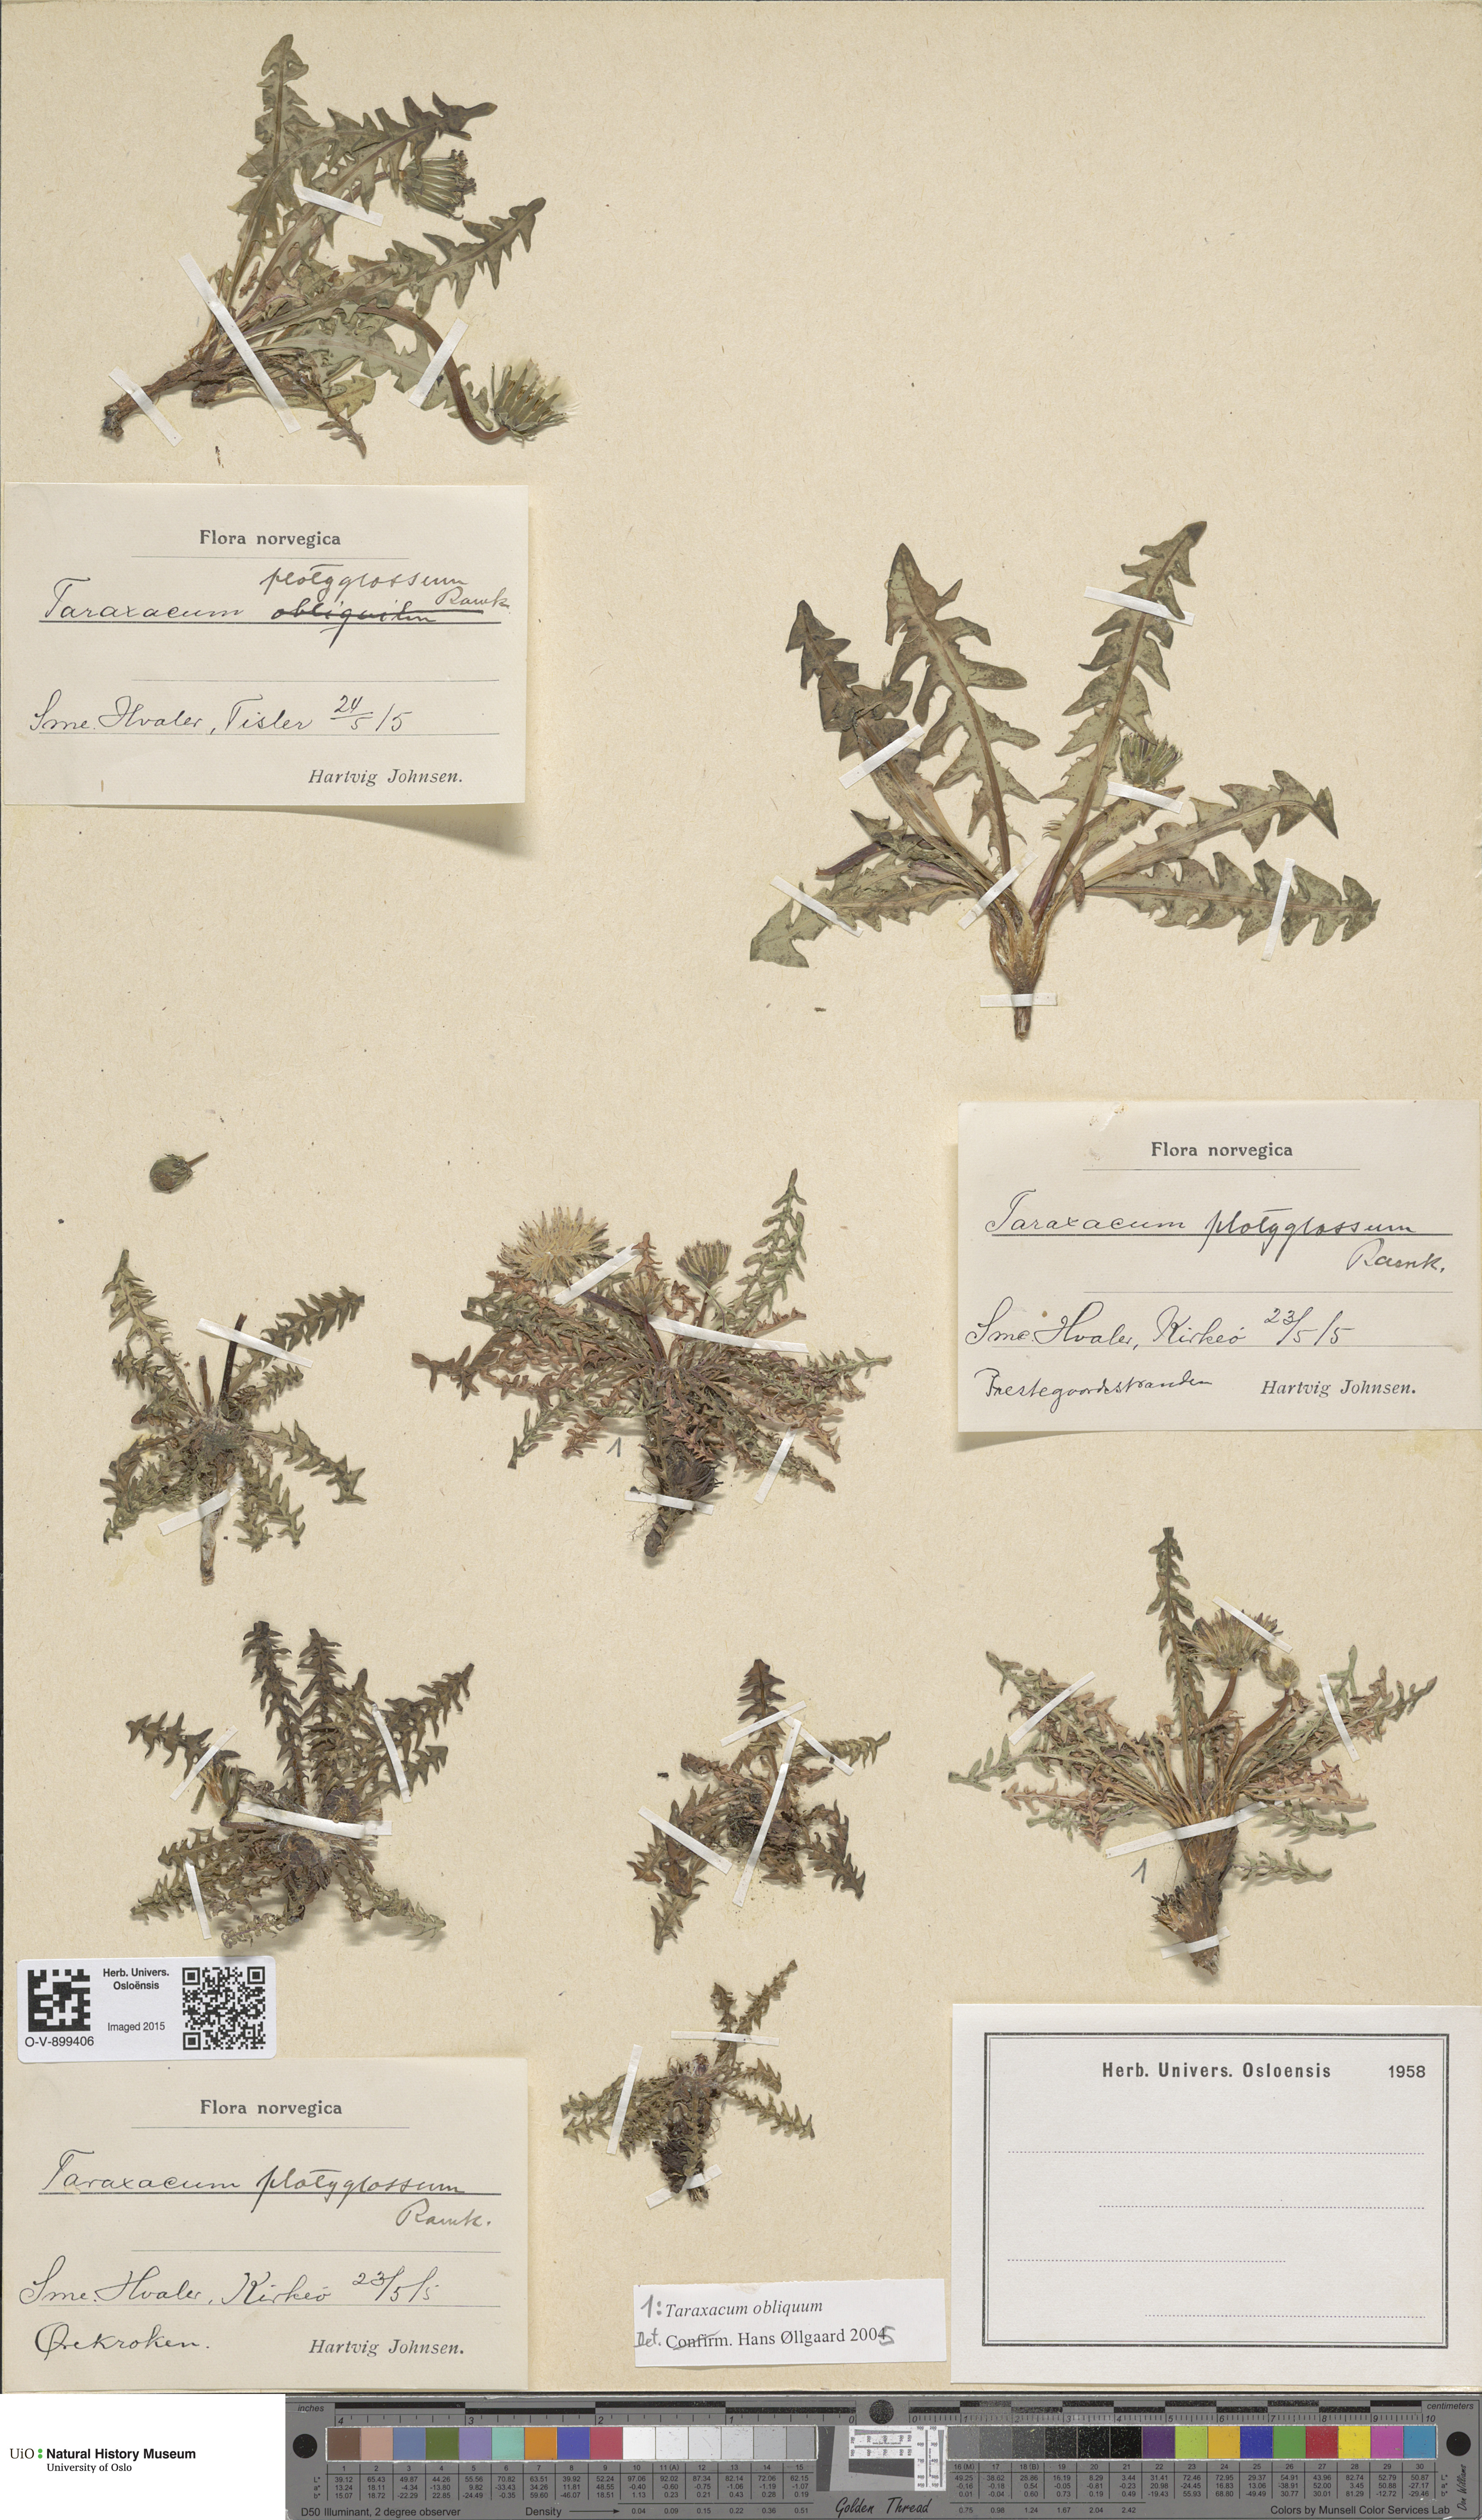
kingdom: Plantae
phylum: Tracheophyta
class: Magnoliopsida
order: Asterales
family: Asteraceae
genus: Taraxacum
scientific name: Taraxacum obliquum
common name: Many-lobed dandelion
